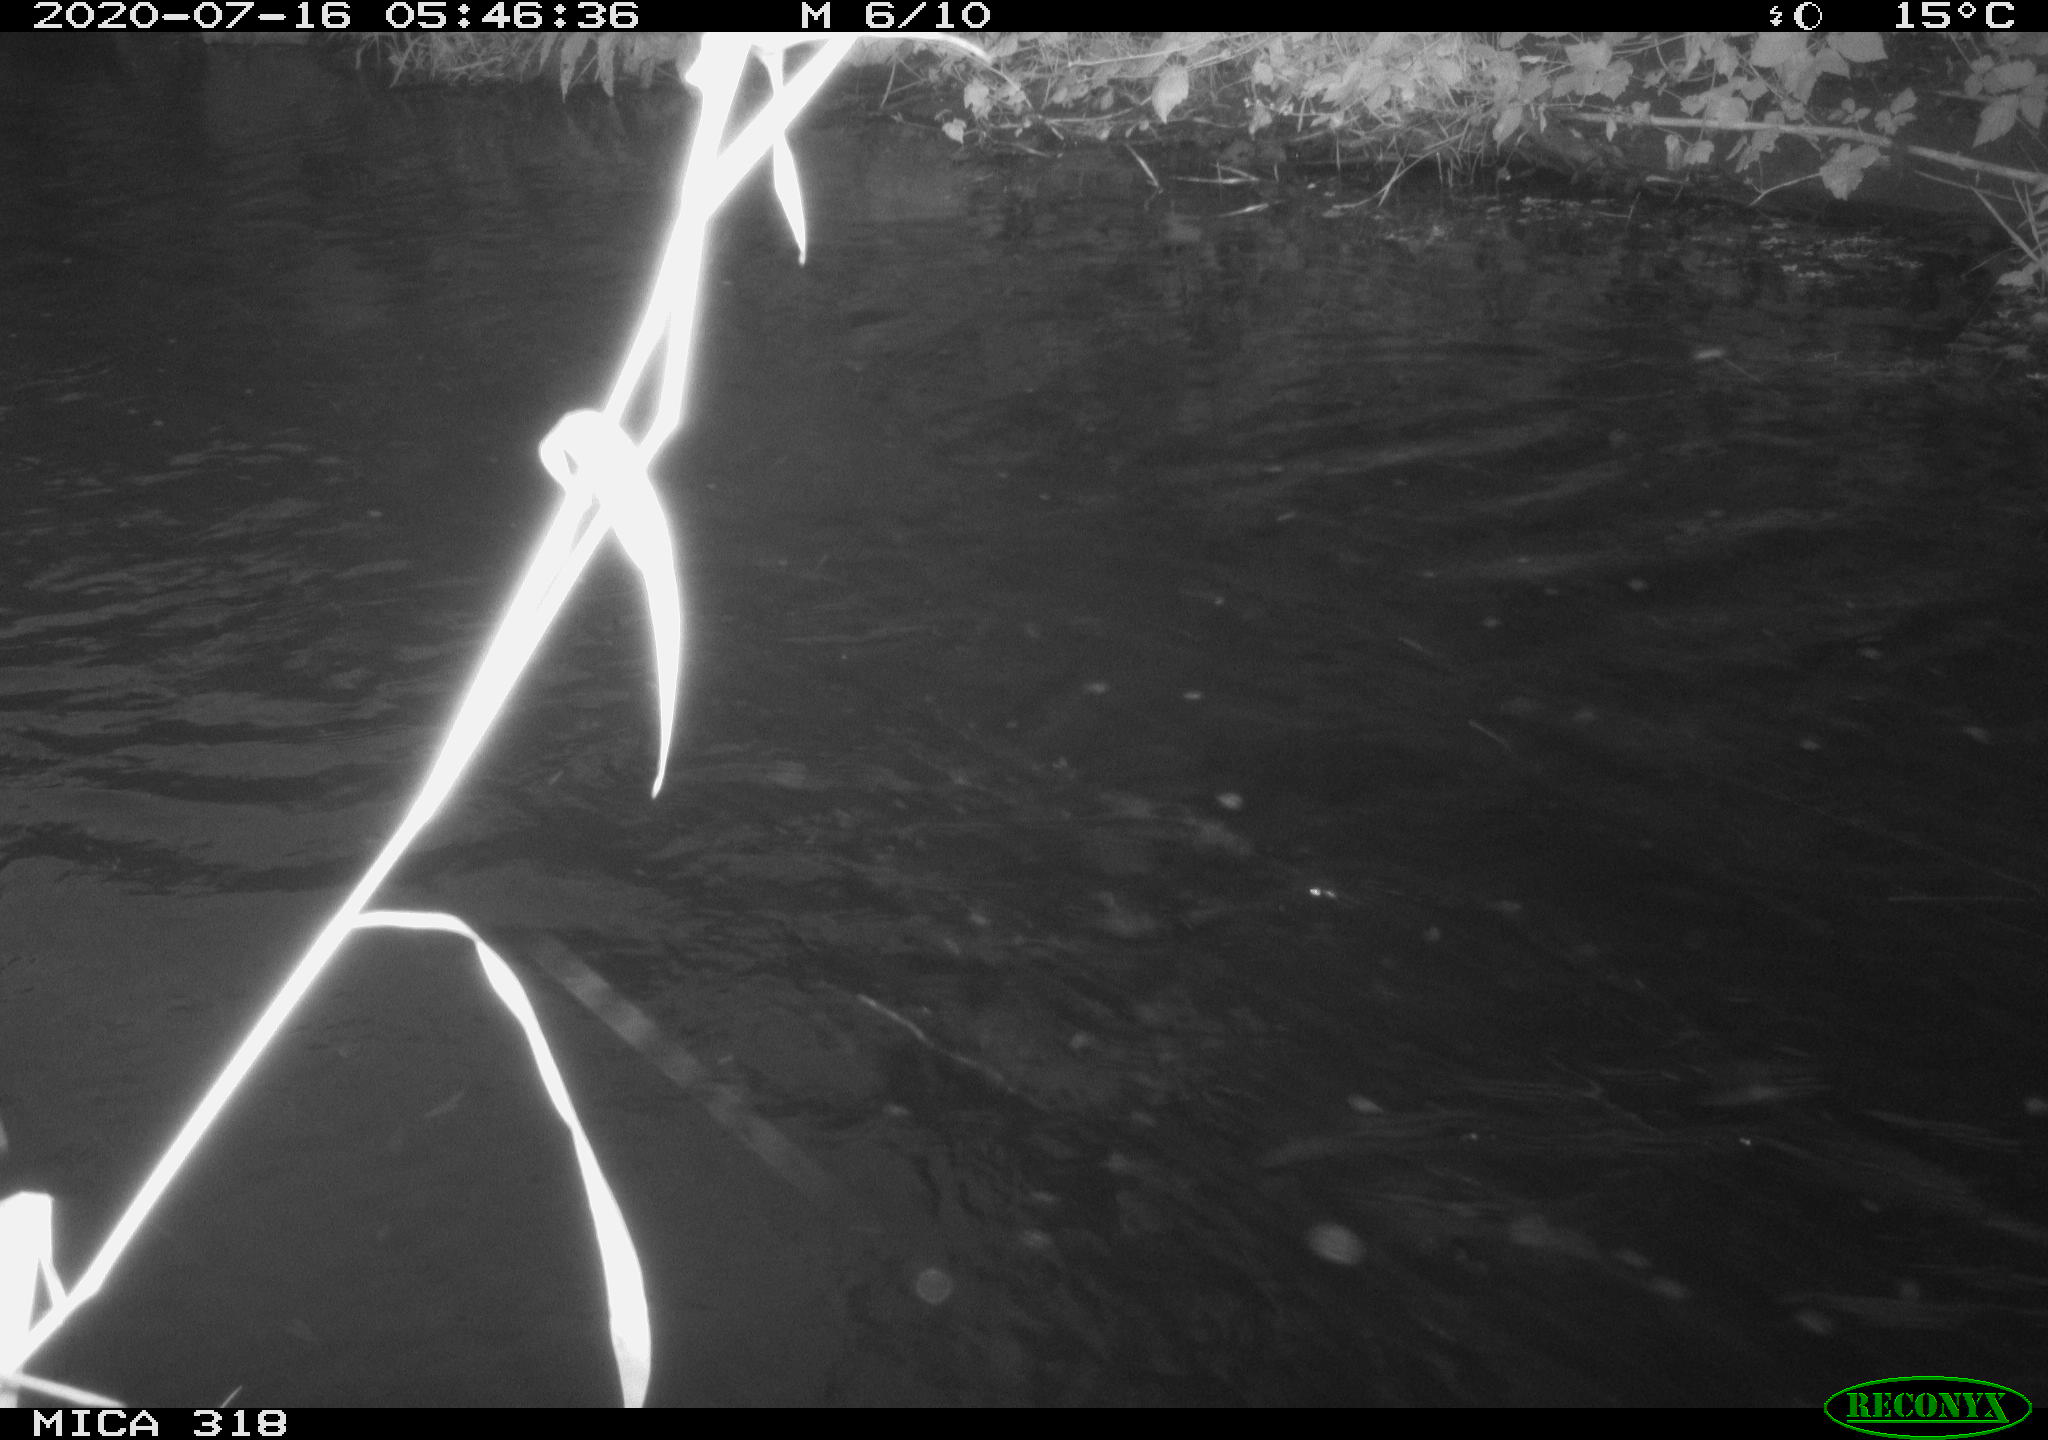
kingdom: Animalia
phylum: Chordata
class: Aves
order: Anseriformes
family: Anatidae
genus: Mareca
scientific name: Mareca strepera
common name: Gadwall
